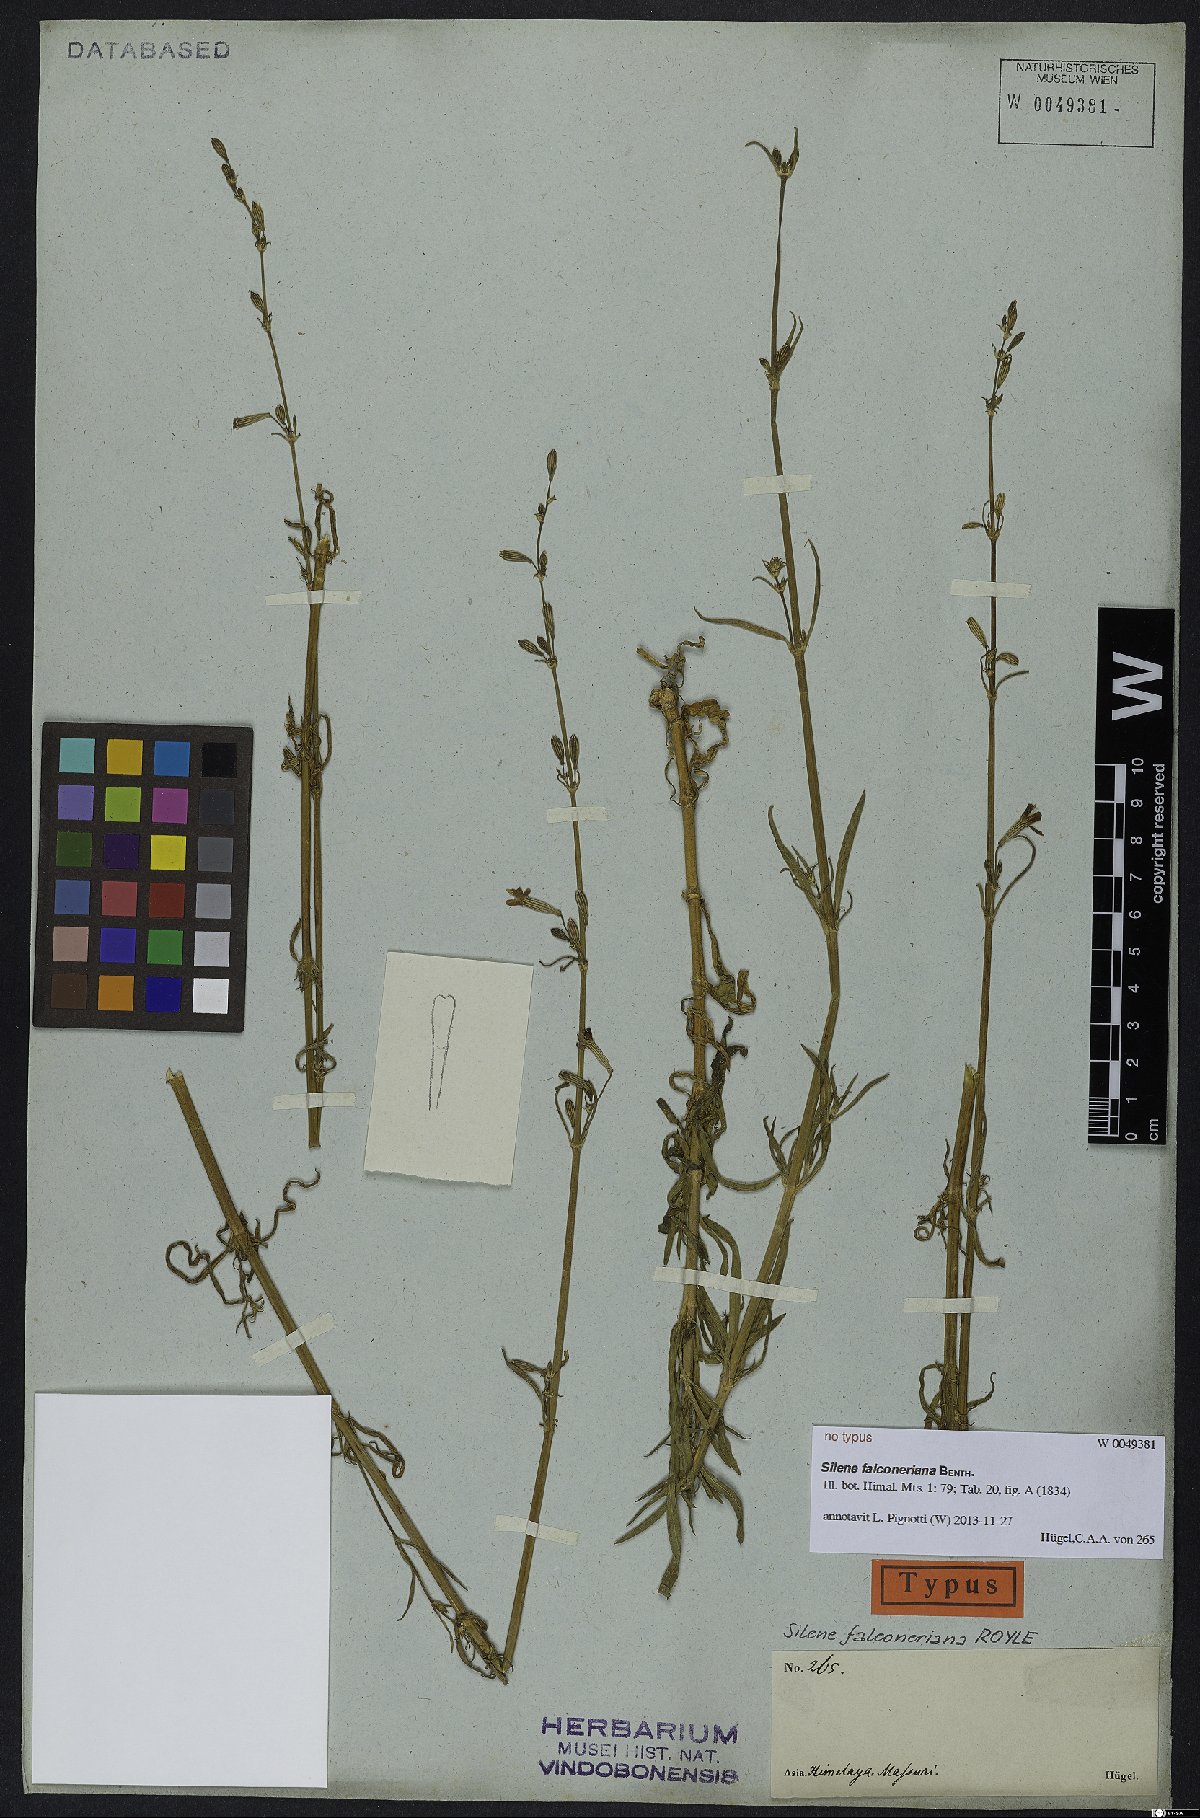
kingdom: Plantae
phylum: Tracheophyta
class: Magnoliopsida
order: Caryophyllales
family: Caryophyllaceae
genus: Silene
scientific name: Silene falconeriana
